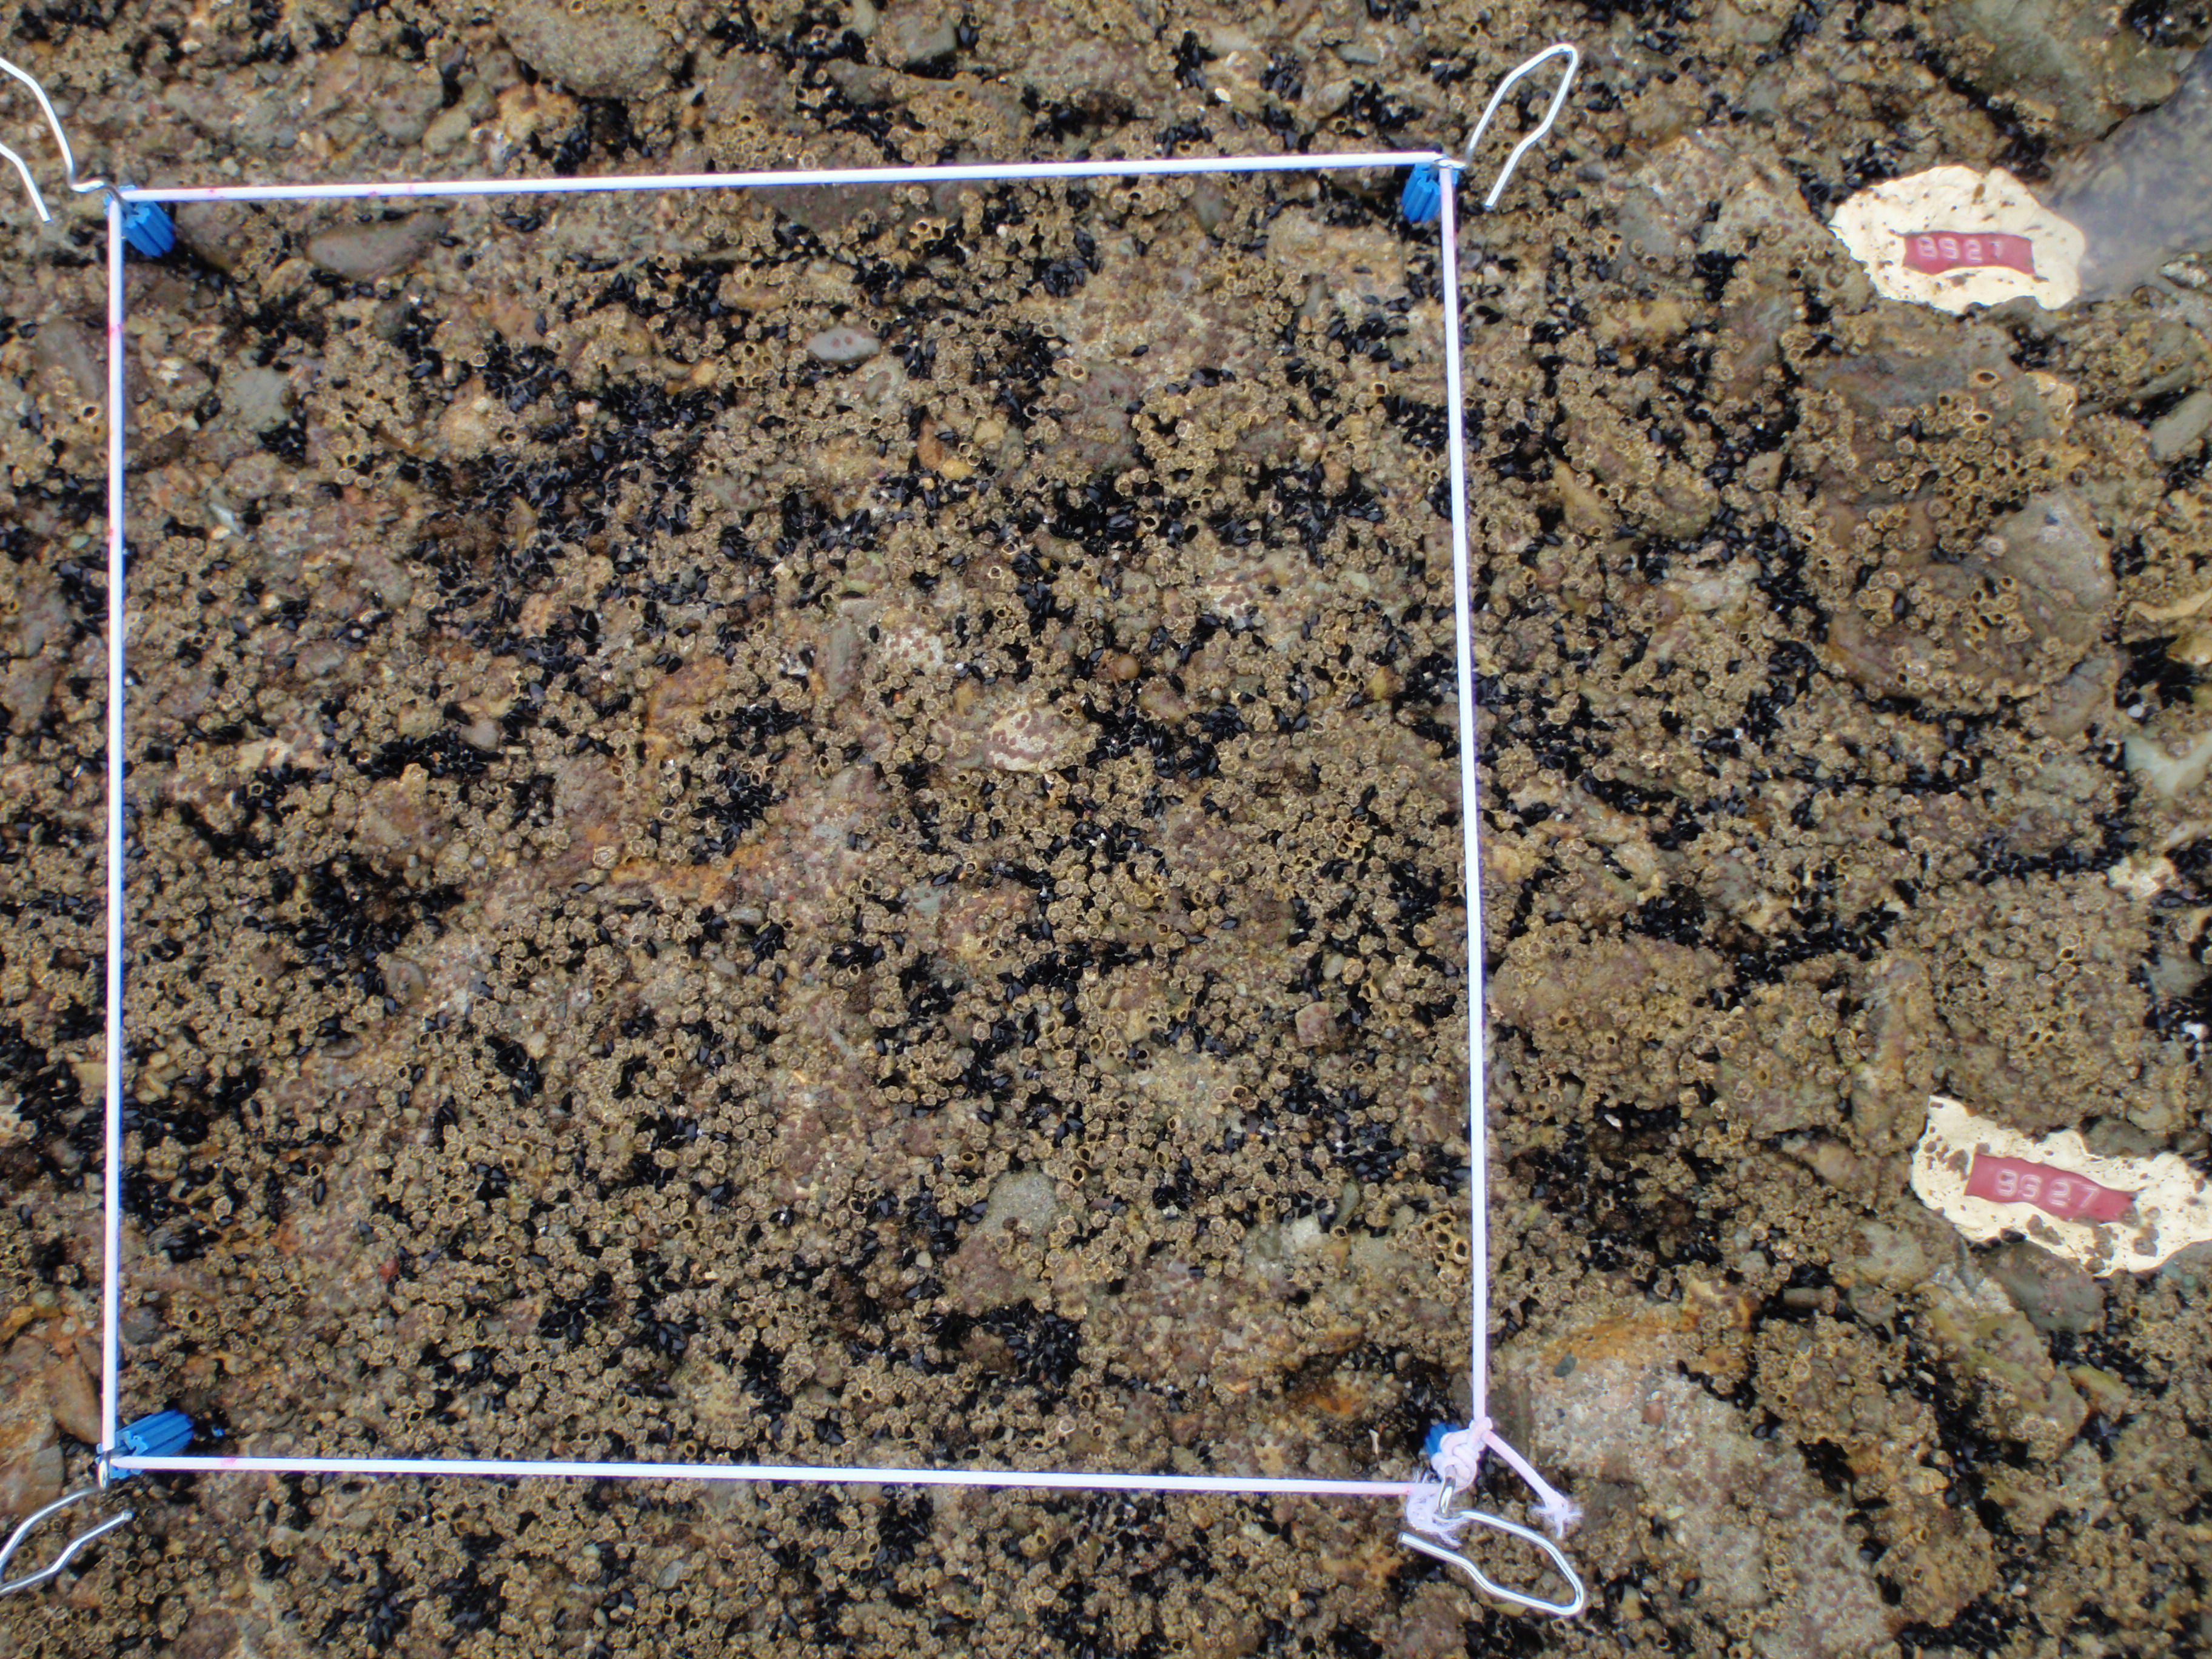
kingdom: Animalia
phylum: Arthropoda
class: Maxillopoda
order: Sessilia
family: Chthamalidae
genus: Chthamalus
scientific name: Chthamalus challengeri
